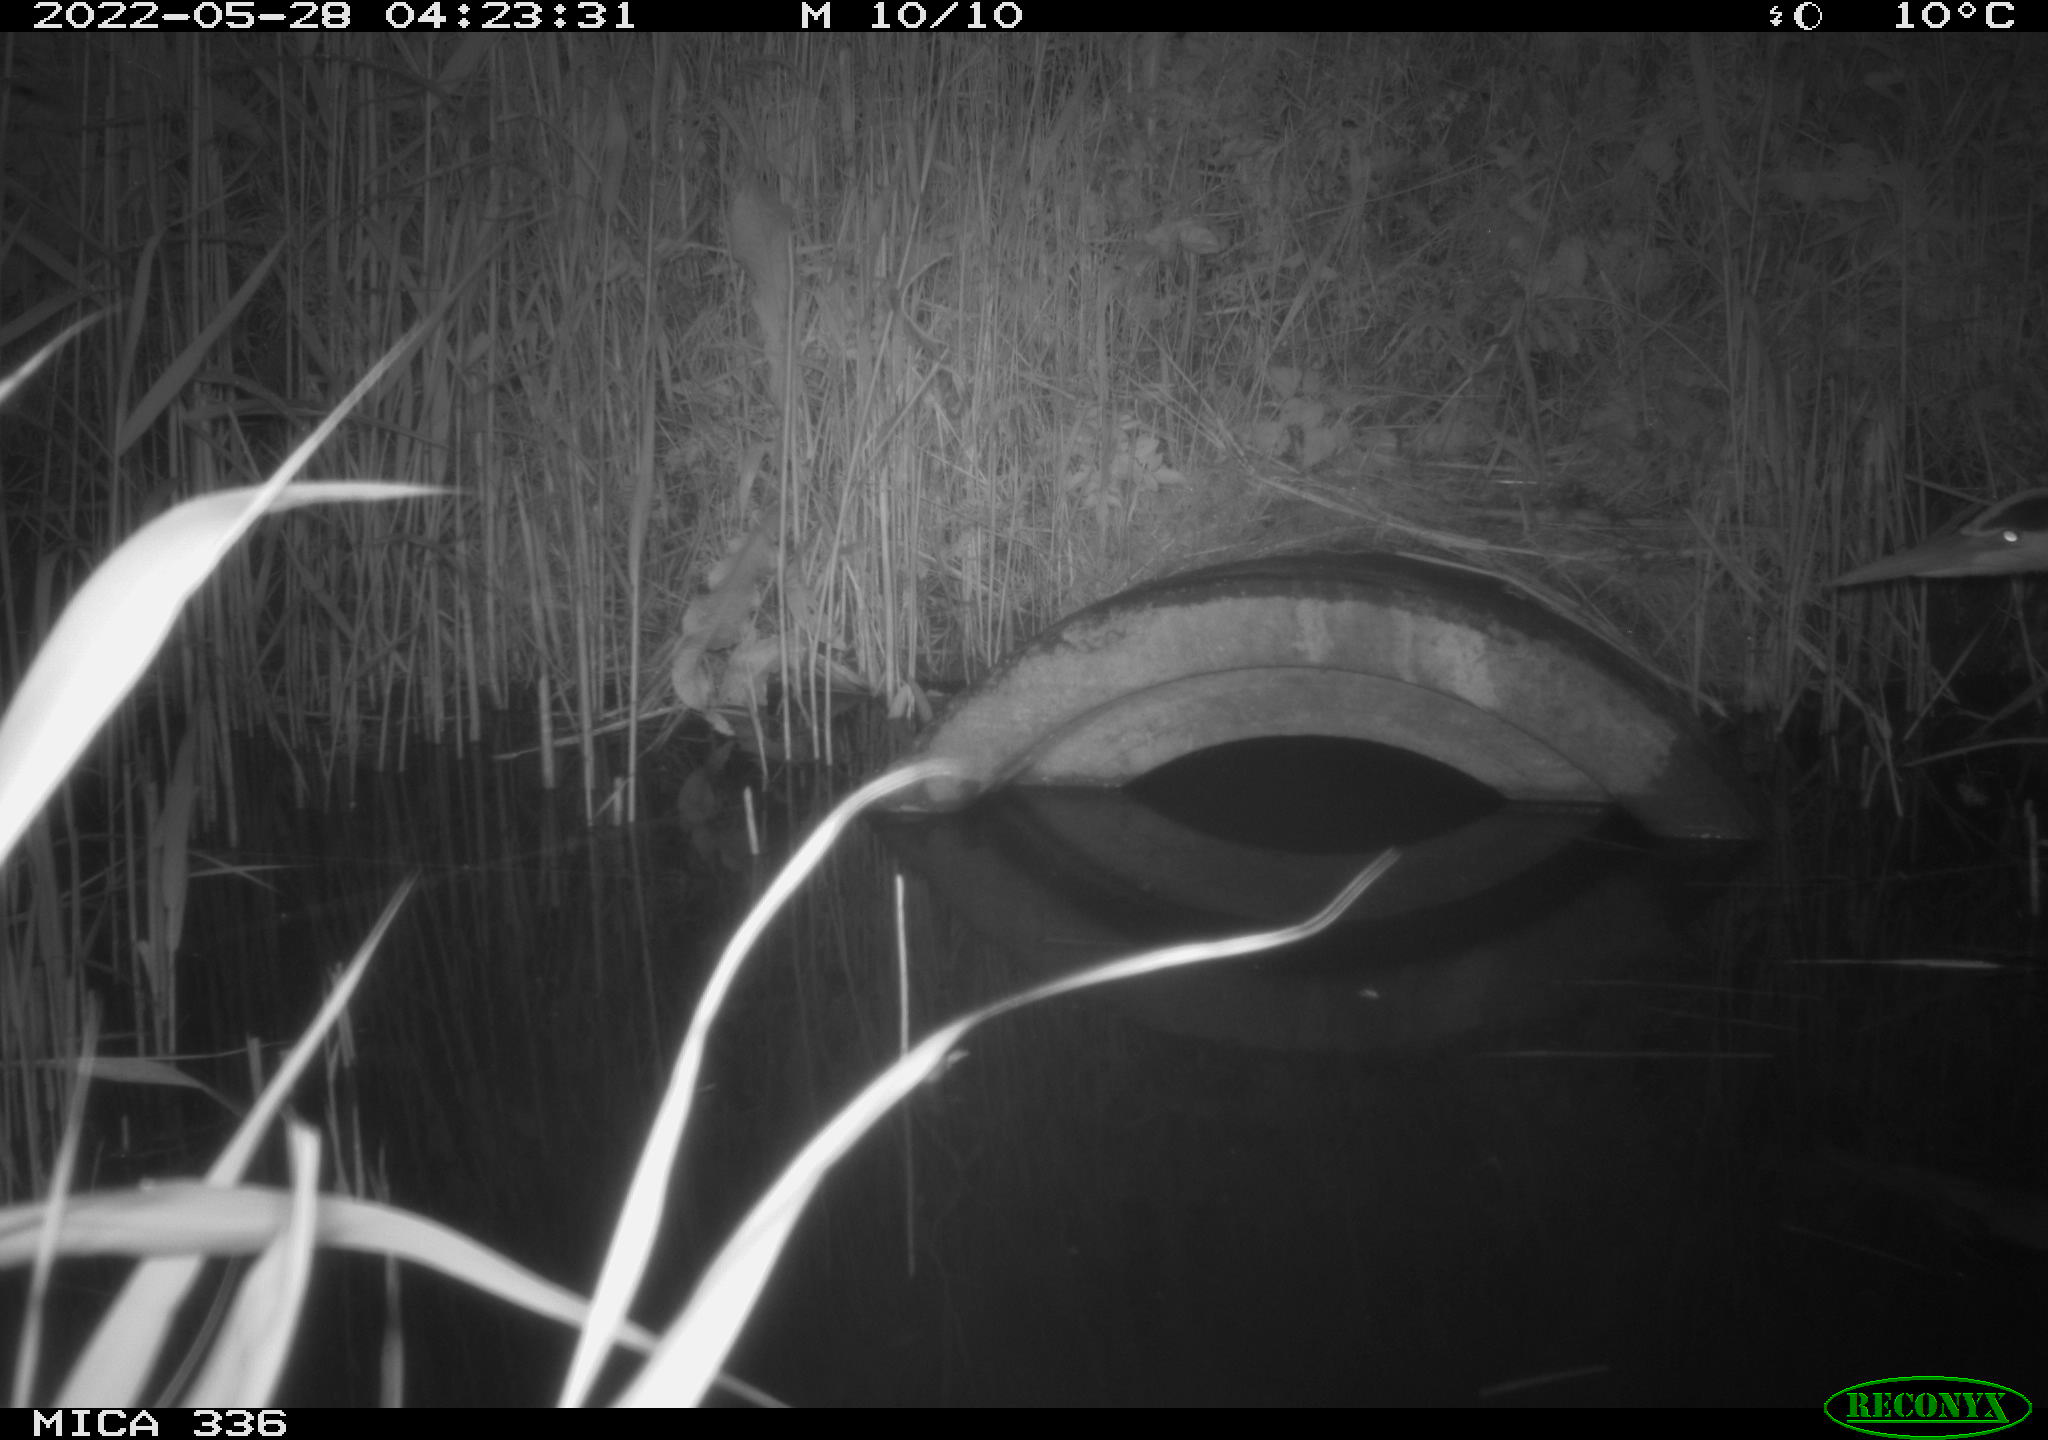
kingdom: Animalia
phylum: Chordata
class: Aves
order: Pelecaniformes
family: Ardeidae
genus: Ardea
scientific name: Ardea cinerea
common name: Grey heron
